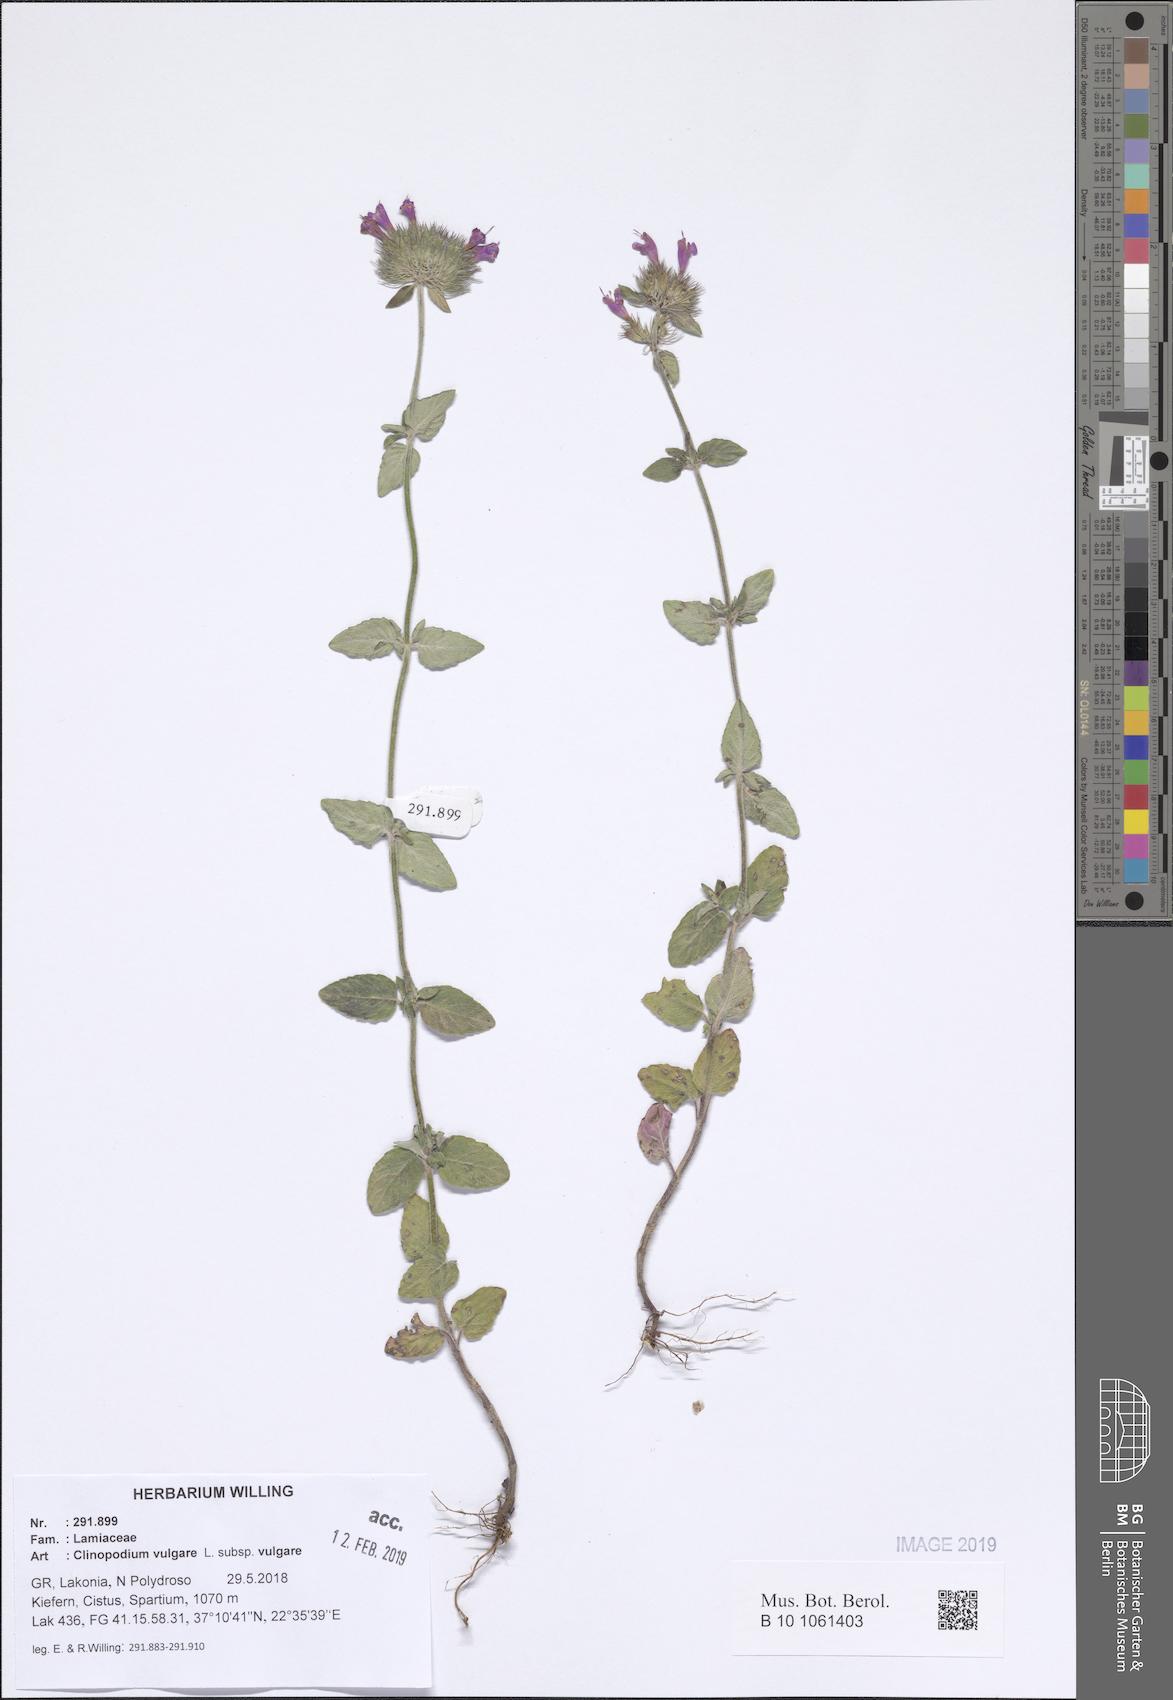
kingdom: Plantae
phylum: Tracheophyta
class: Magnoliopsida
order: Lamiales
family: Lamiaceae
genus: Clinopodium
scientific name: Clinopodium vulgare
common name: Wild basil
